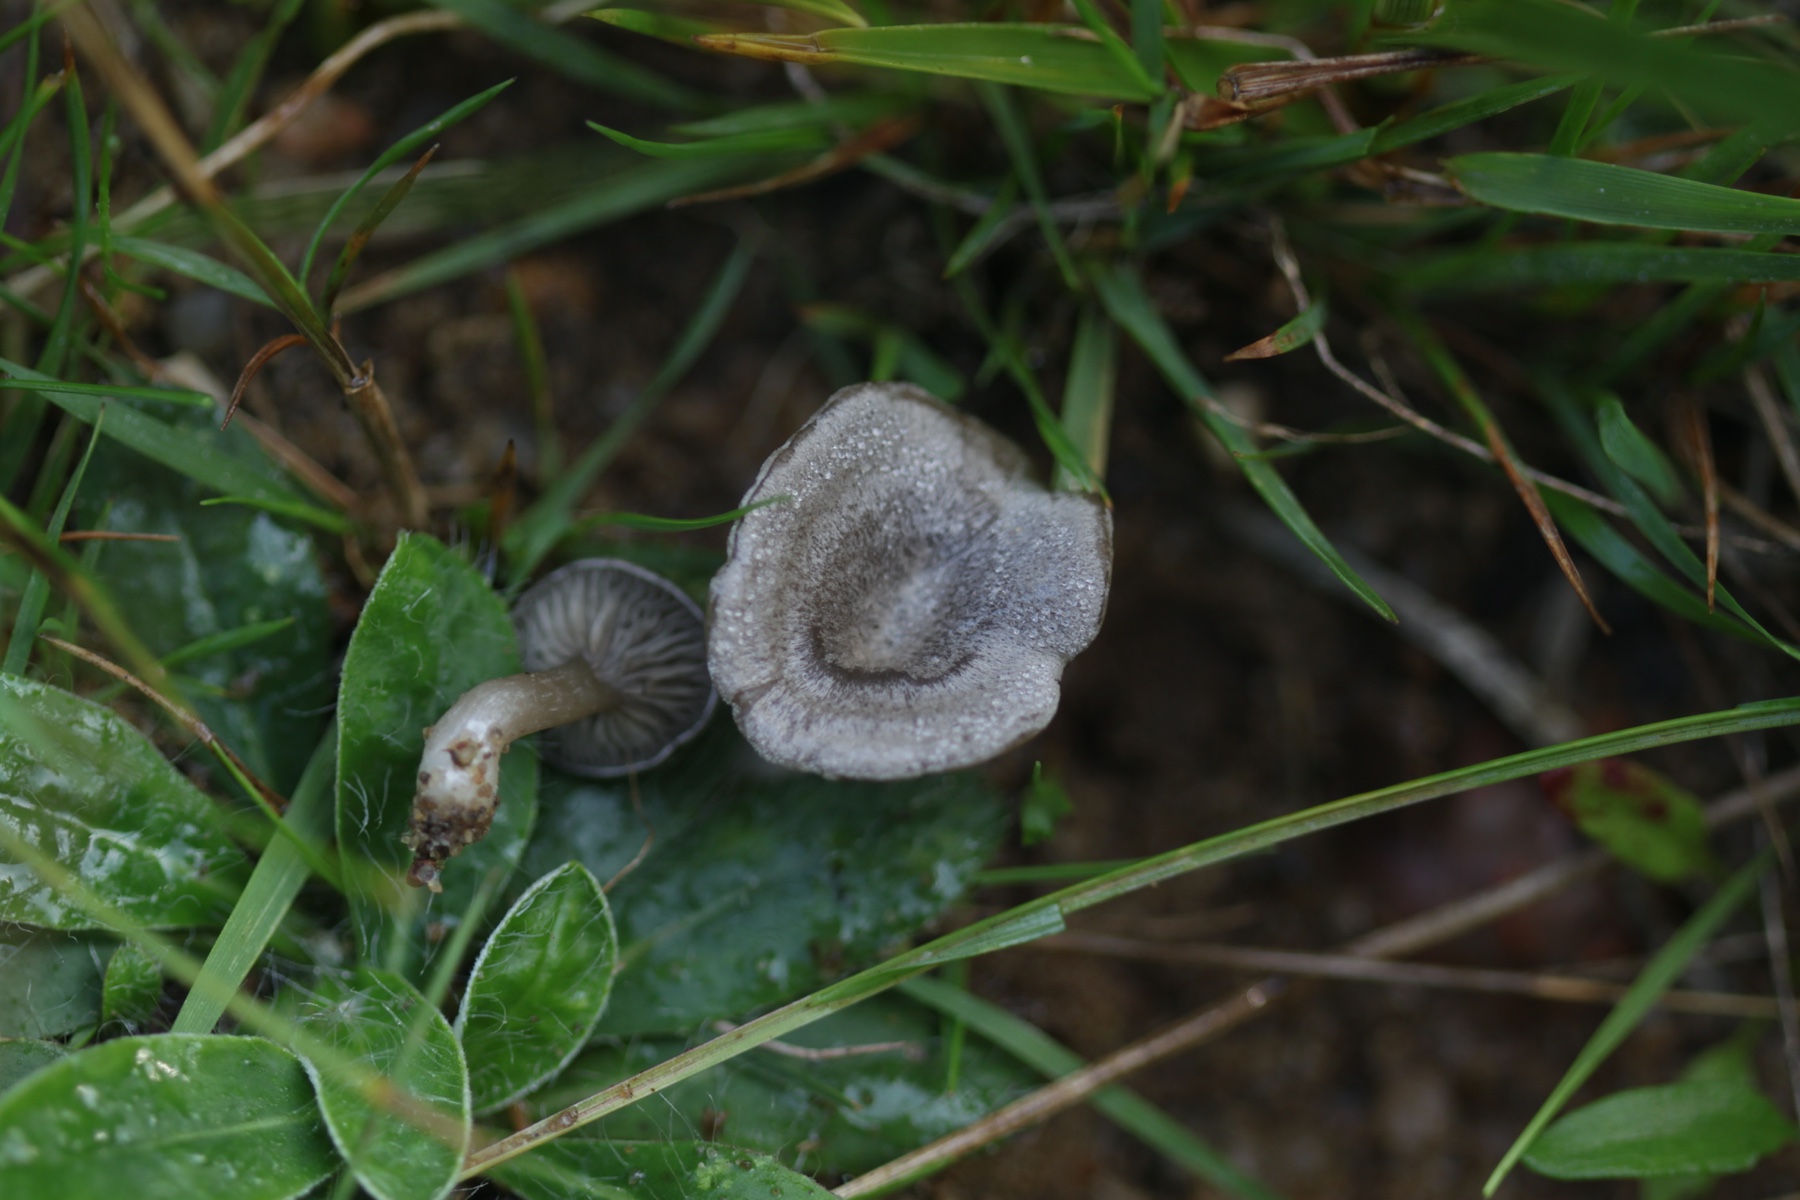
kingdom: Fungi
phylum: Basidiomycota
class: Agaricomycetes
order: Agaricales
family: Entolomataceae
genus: Entoloma
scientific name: Entoloma
